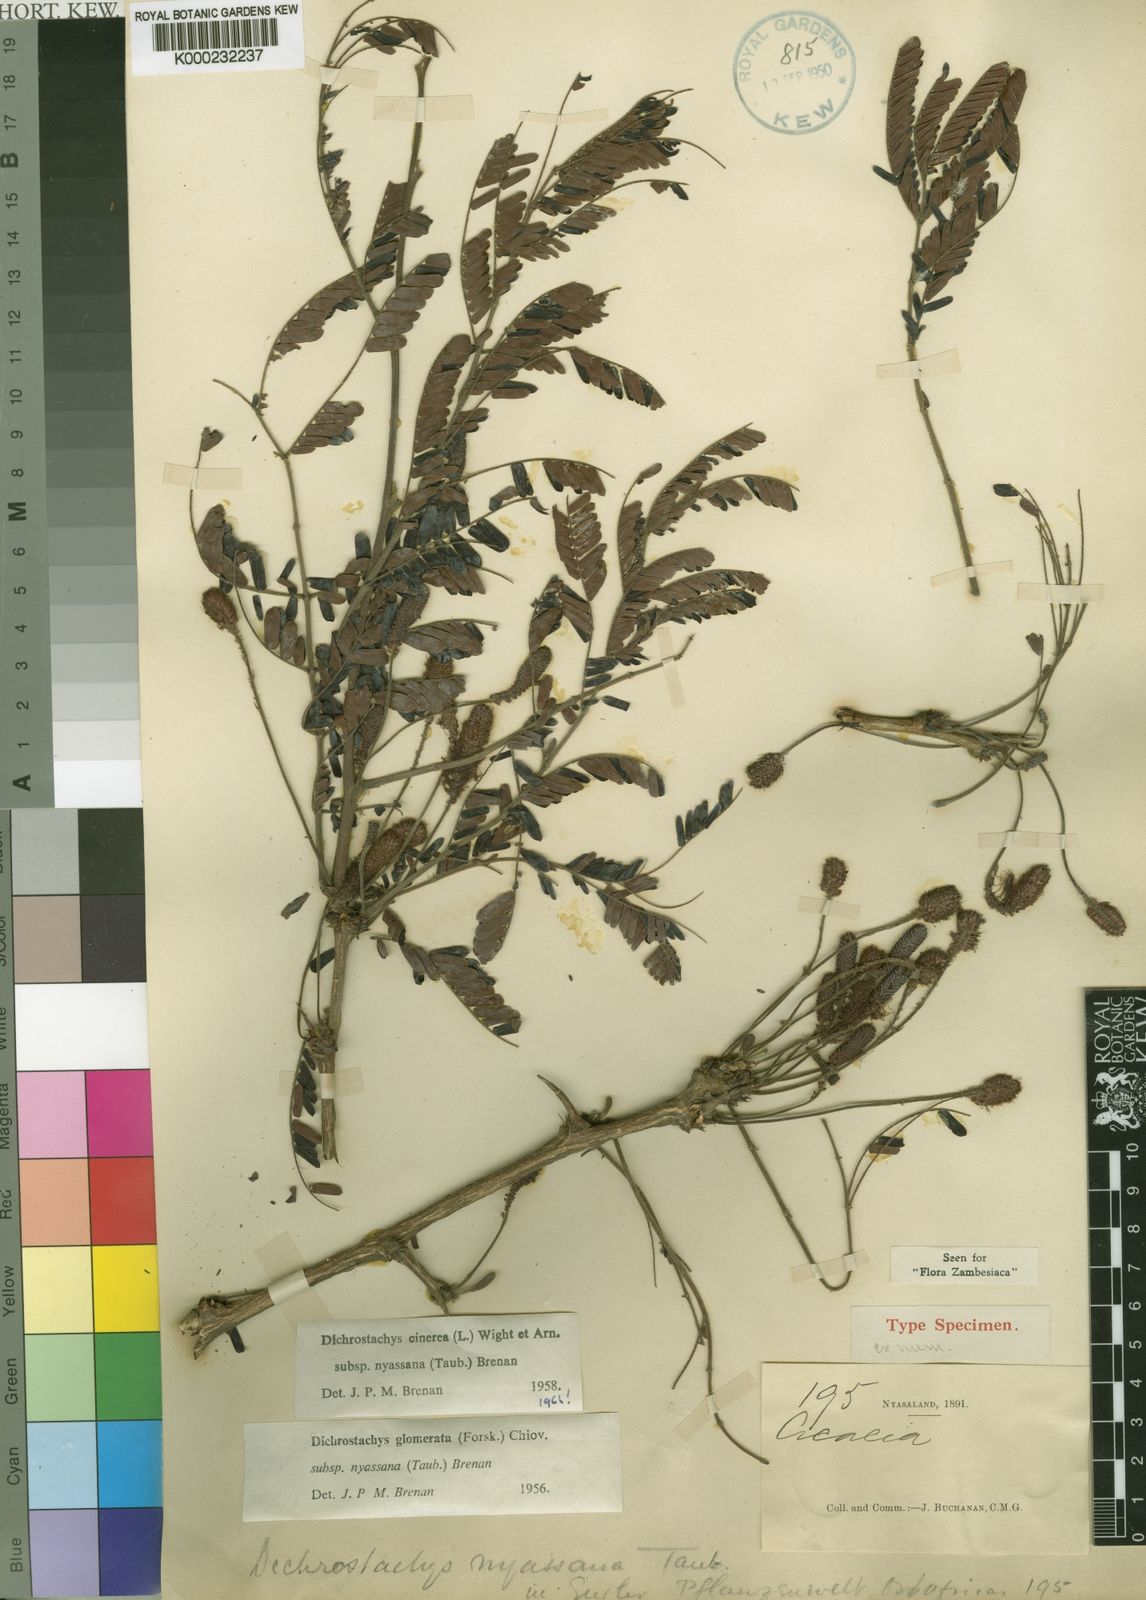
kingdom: Plantae
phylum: Tracheophyta
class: Magnoliopsida
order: Fabales
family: Fabaceae
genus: Dichrostachys
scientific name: Dichrostachys cinerea
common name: Sicklebush
